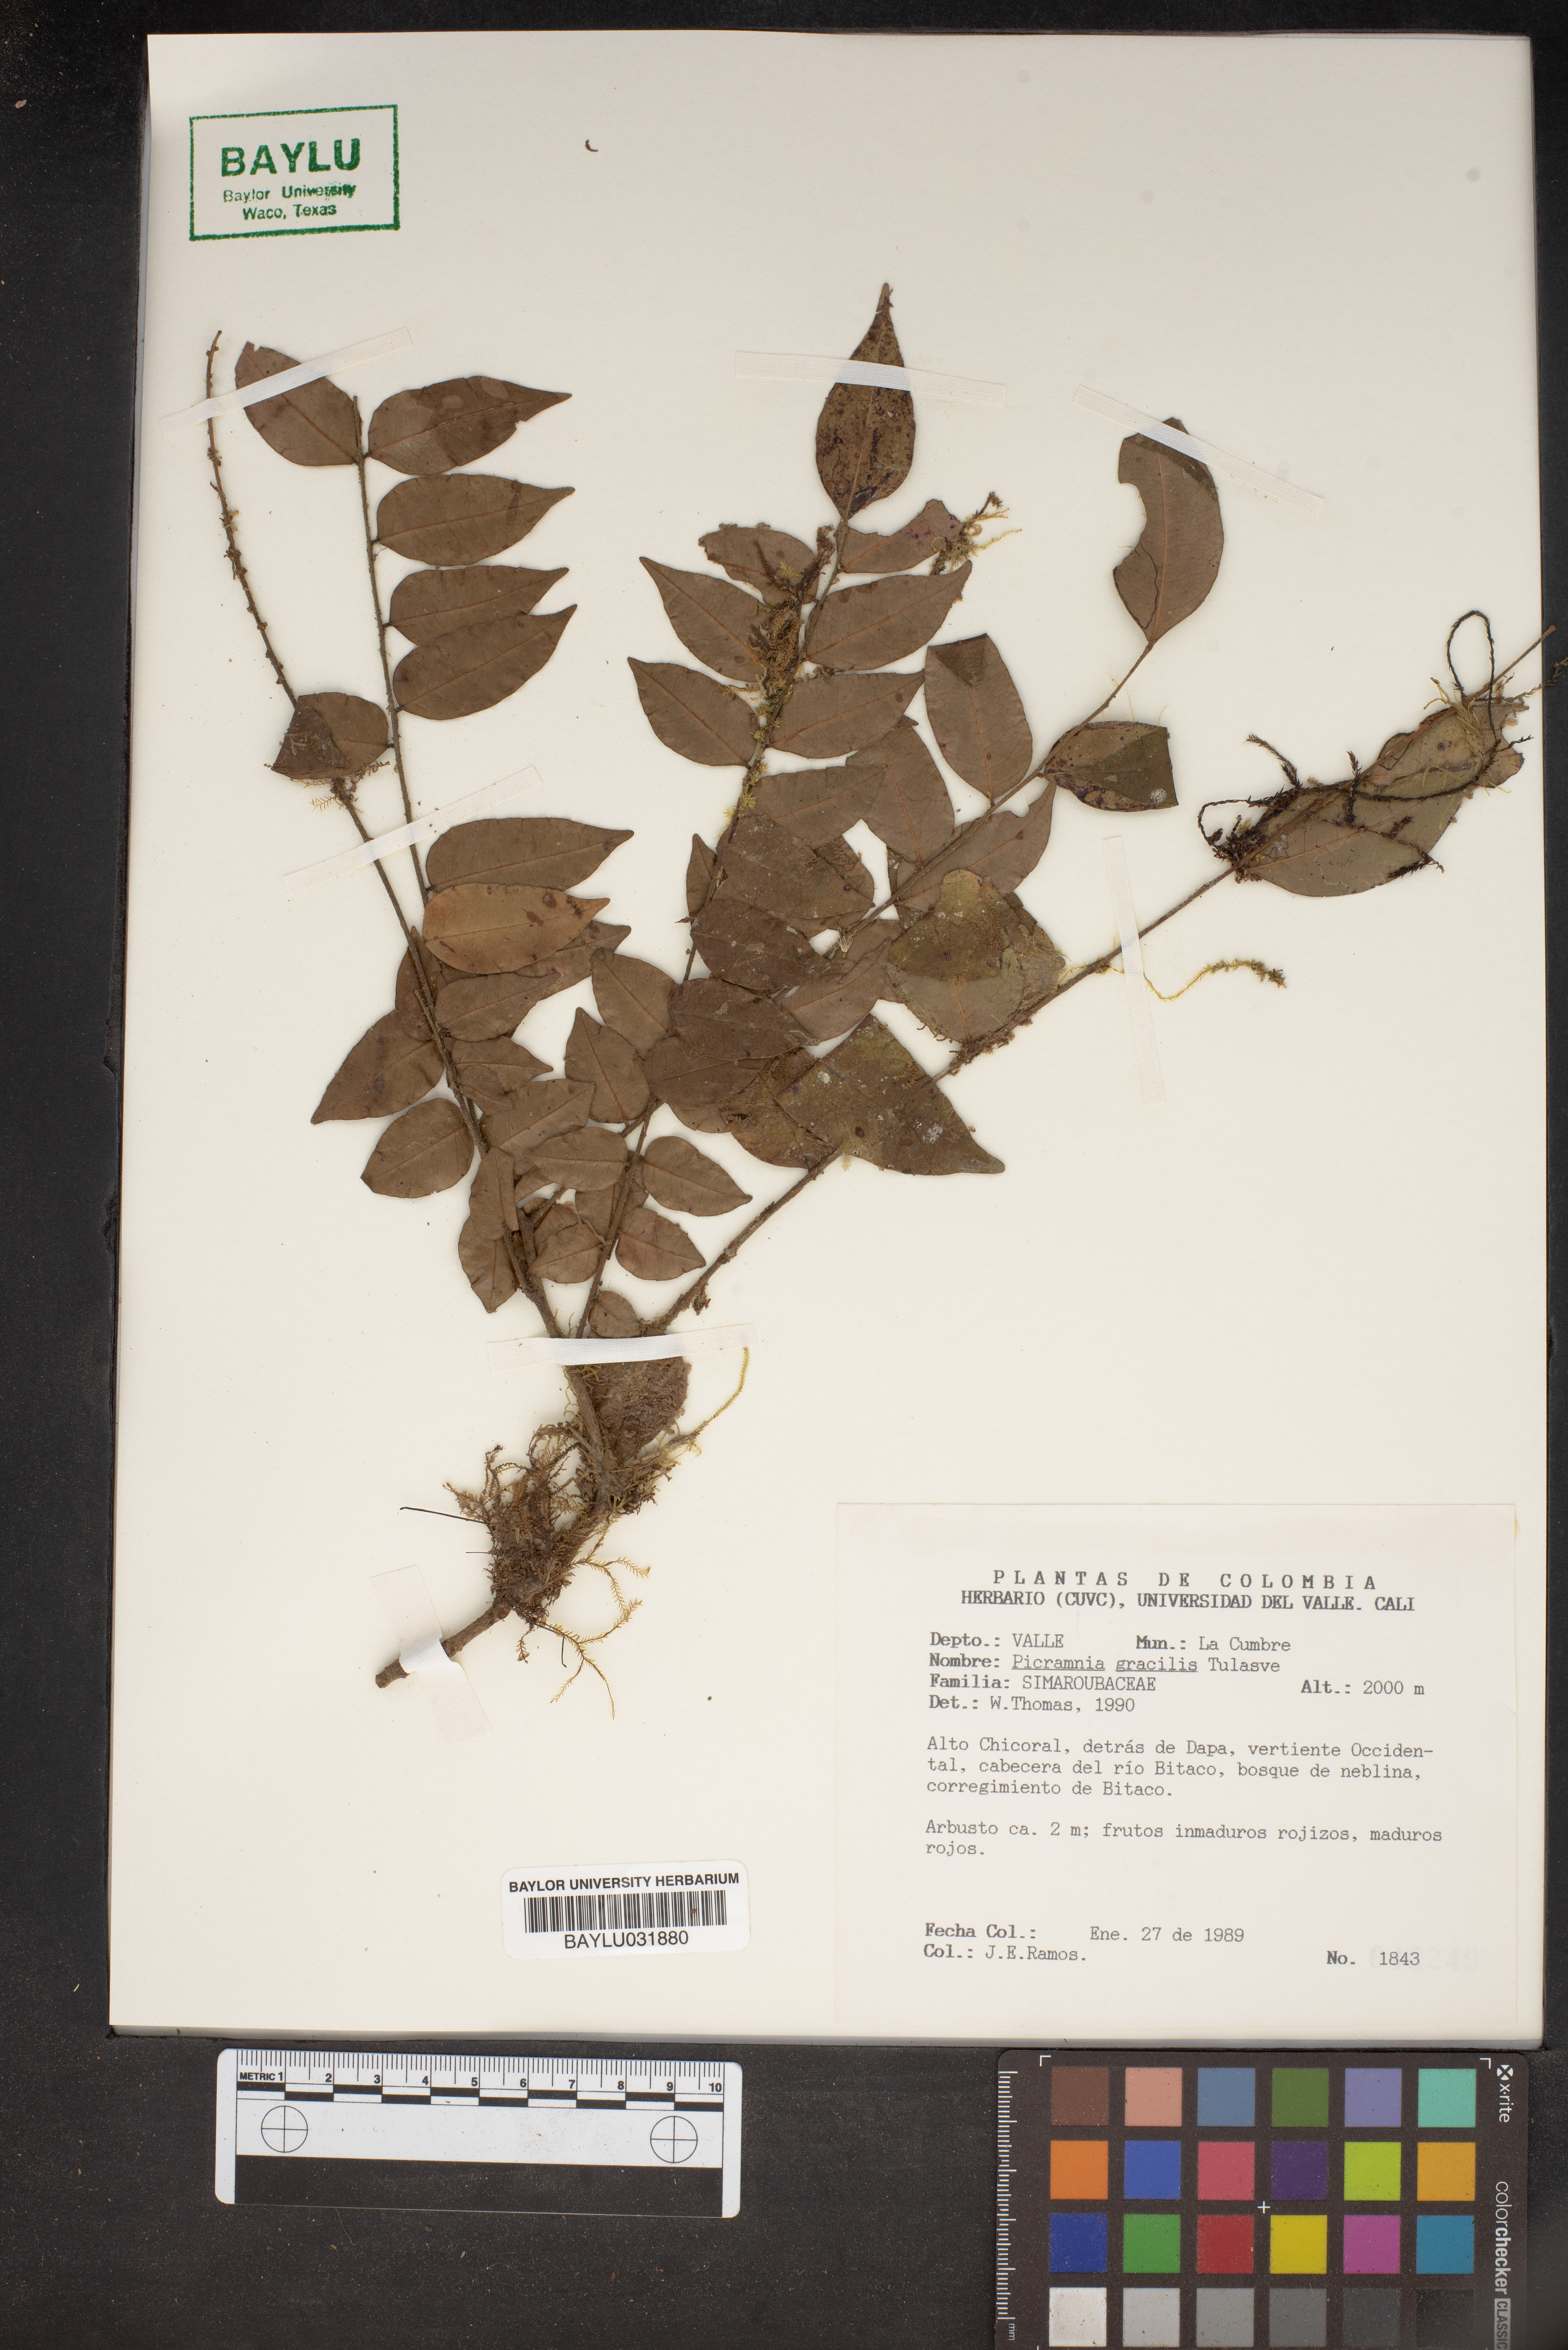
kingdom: Plantae
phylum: Tracheophyta
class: Magnoliopsida
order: Picramniales
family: Picramniaceae
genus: Picramnia
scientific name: Picramnia gracilis
